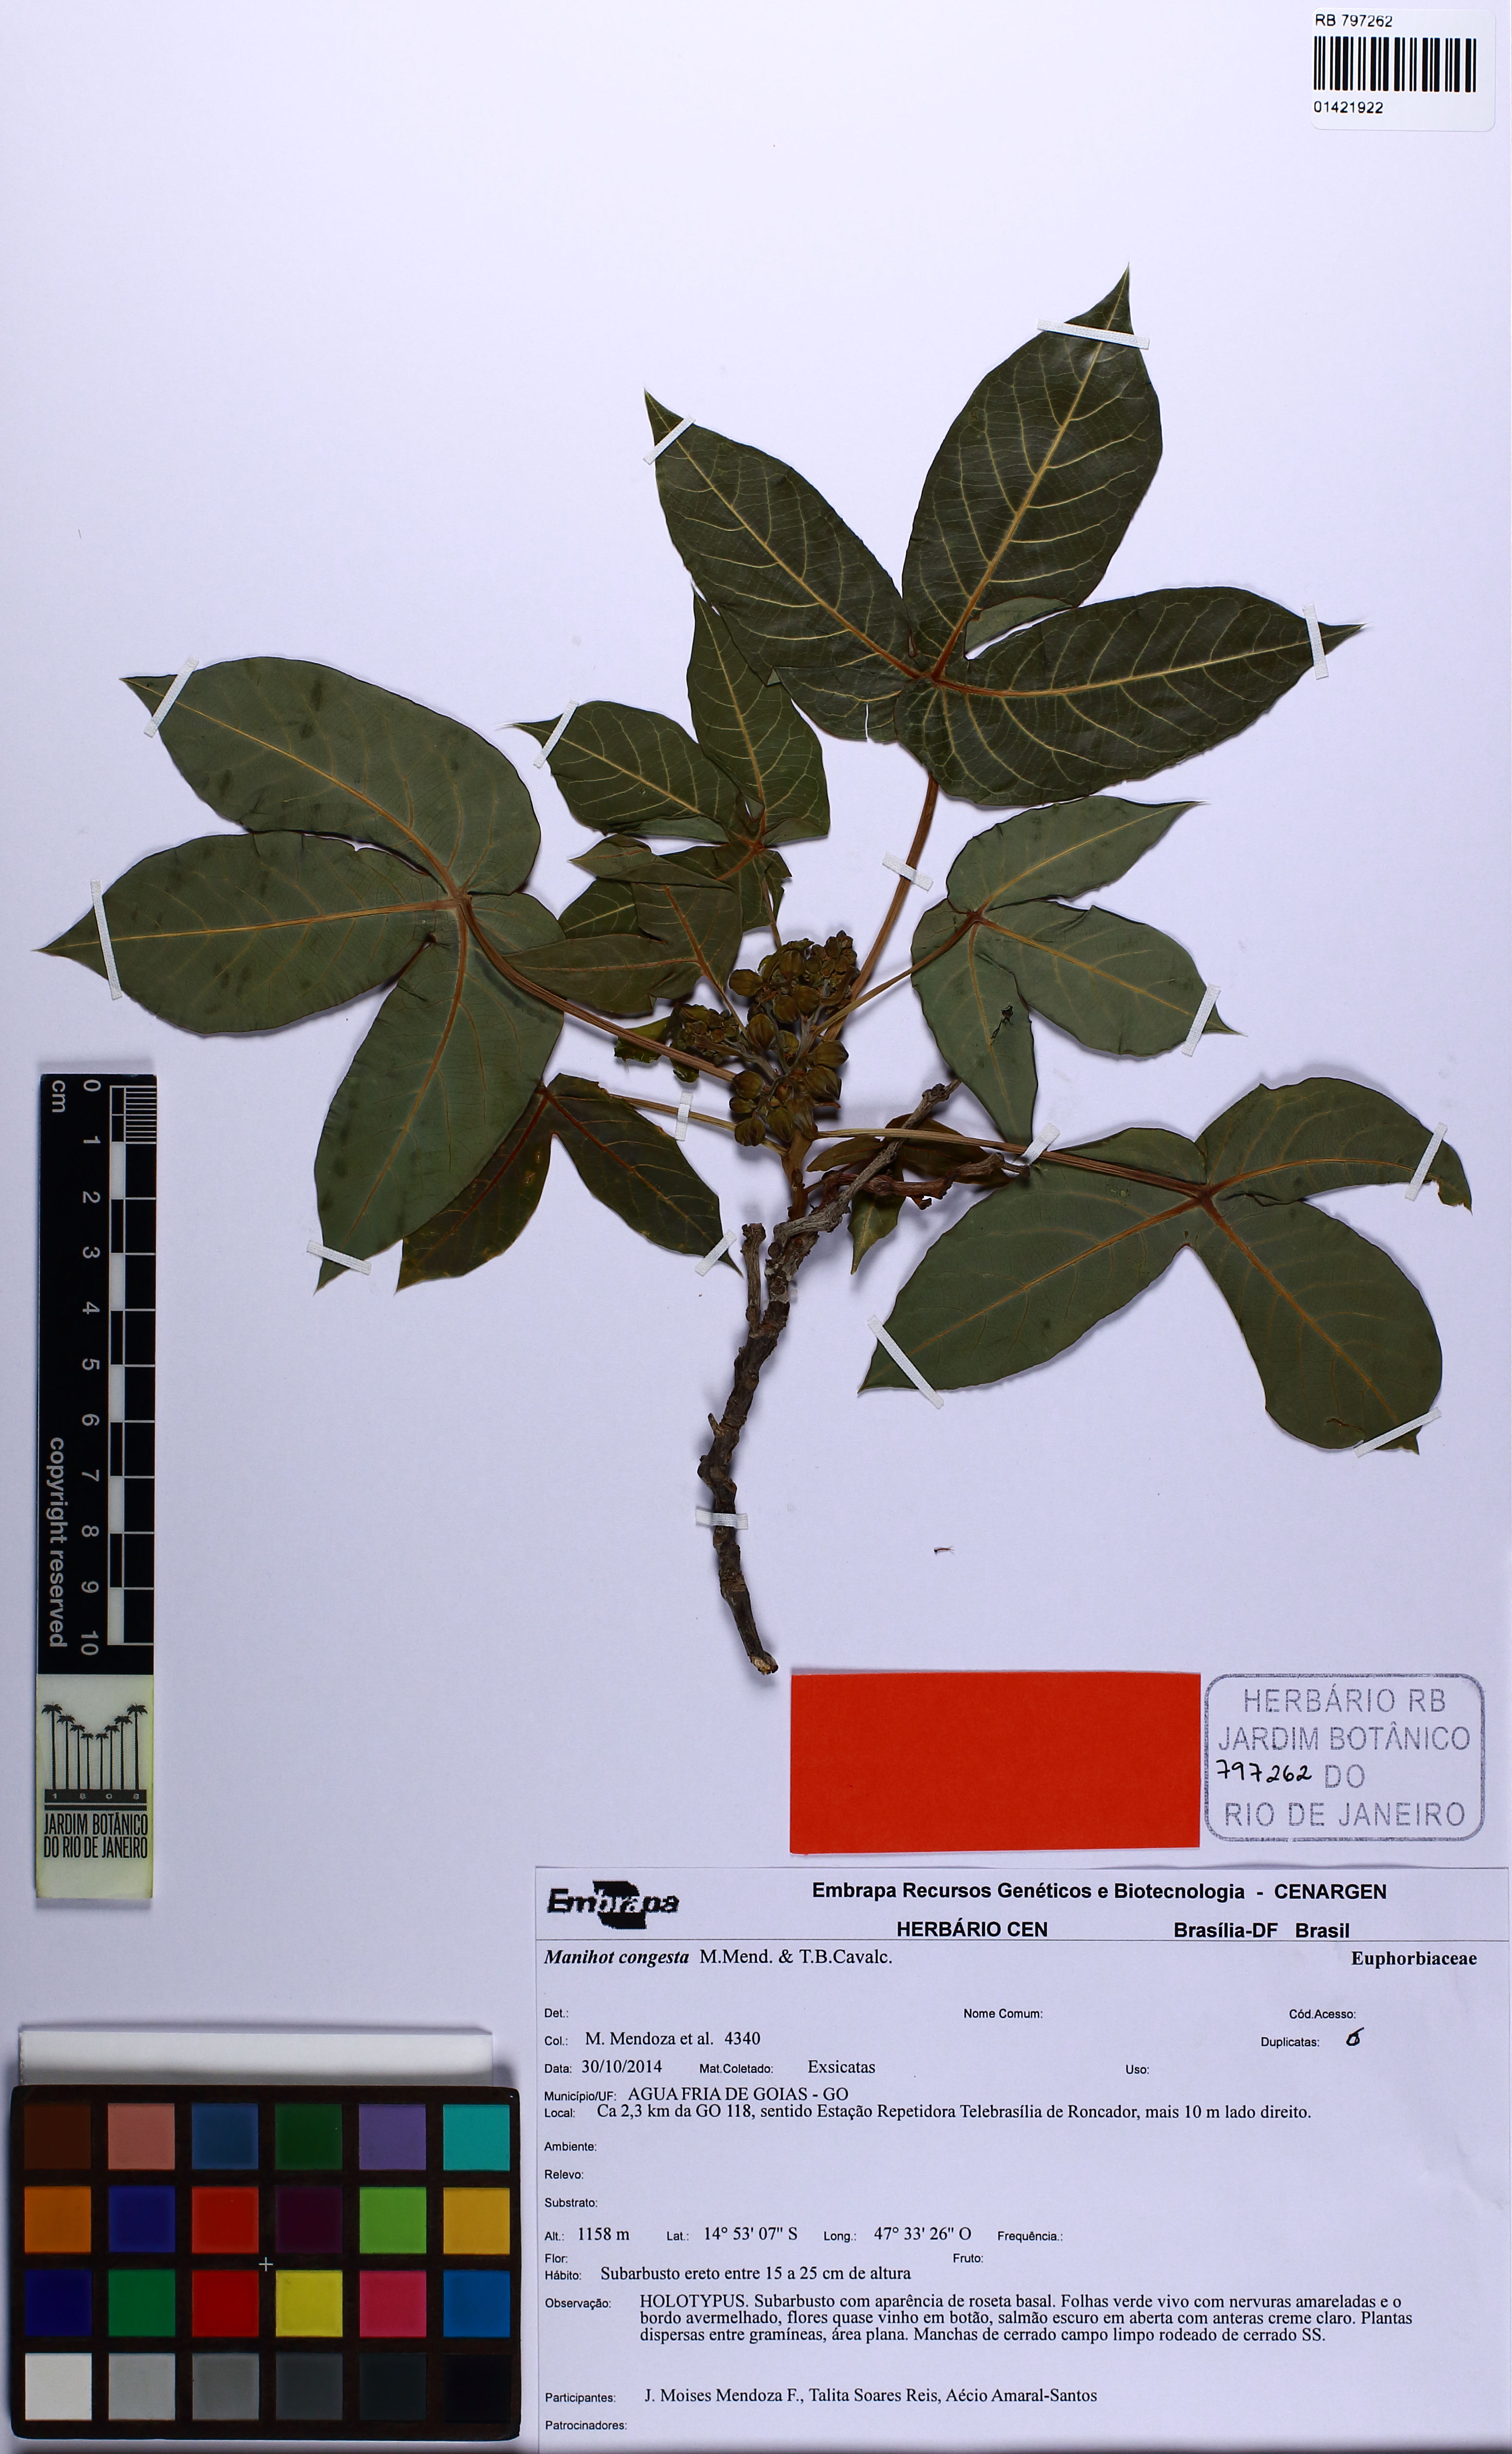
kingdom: Plantae
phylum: Tracheophyta
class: Magnoliopsida
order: Malpighiales
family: Euphorbiaceae
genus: Manihot
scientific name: Manihot congesta
